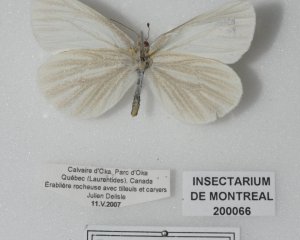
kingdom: Animalia
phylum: Arthropoda
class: Insecta
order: Lepidoptera
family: Pieridae
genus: Pieris
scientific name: Pieris virginiensis
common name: West Virginia White
